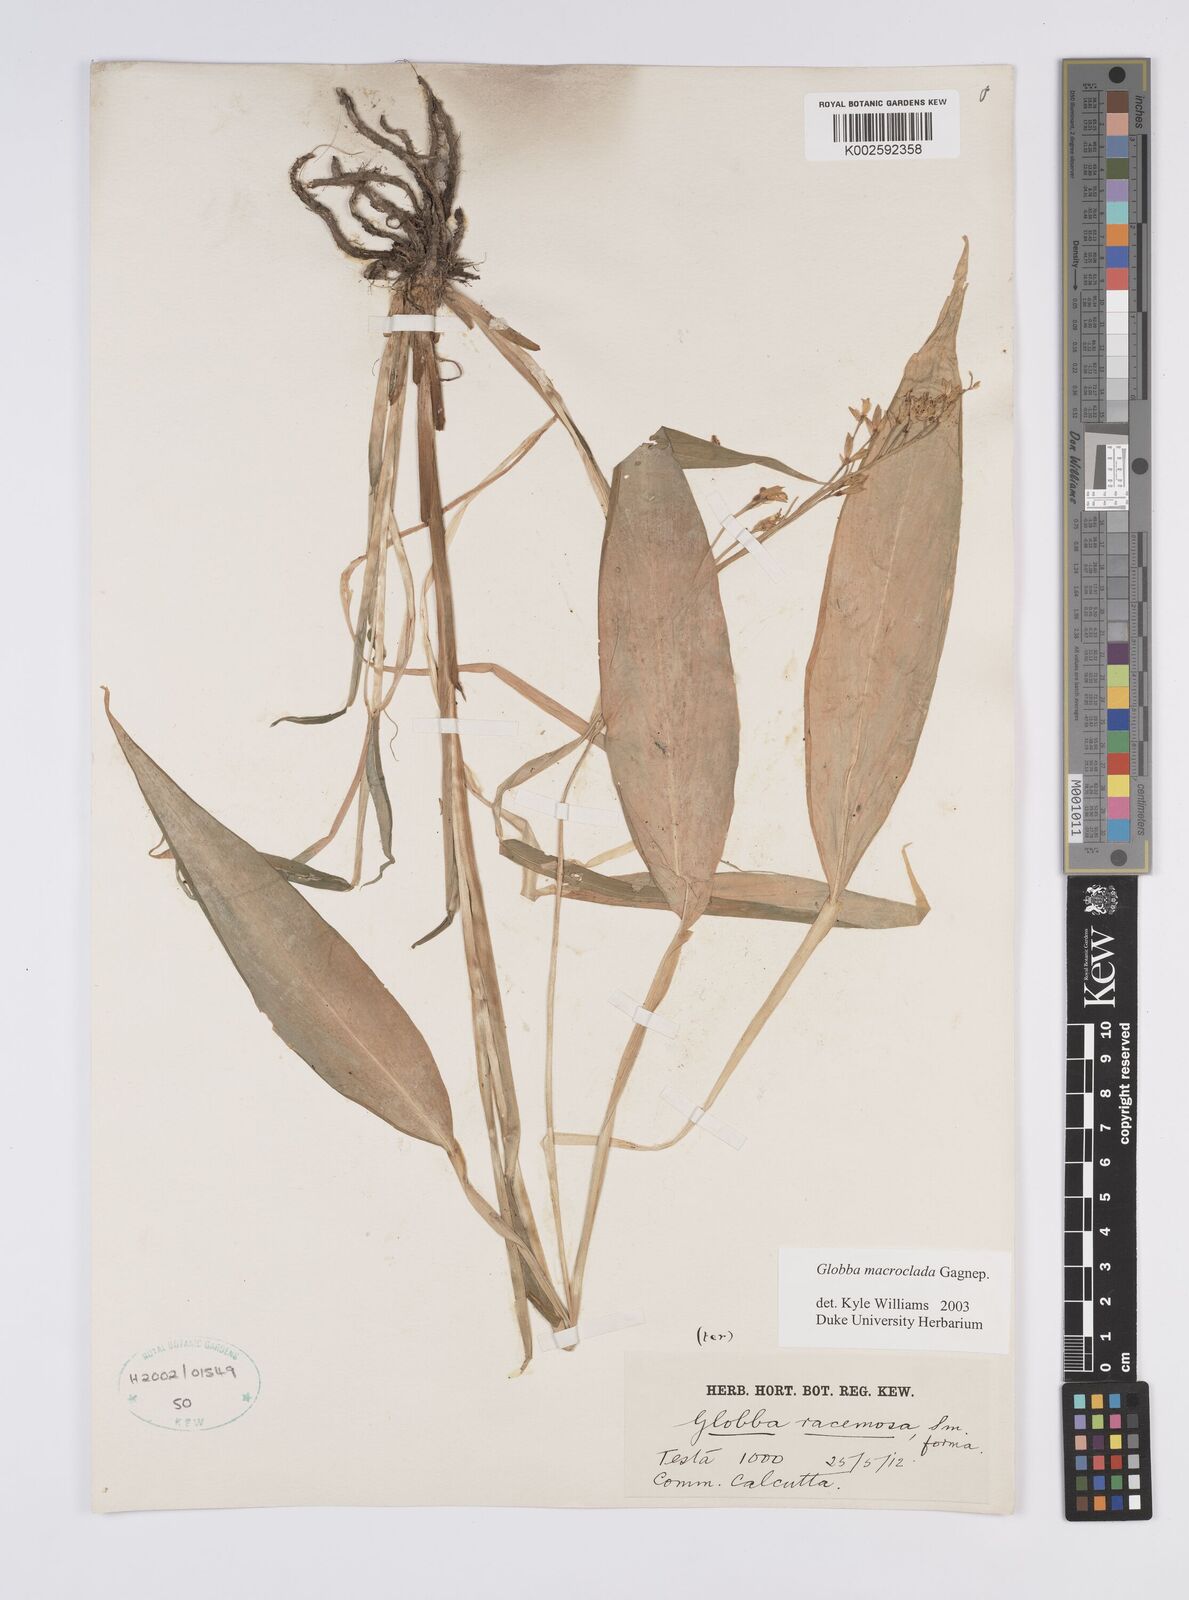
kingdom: Plantae
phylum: Tracheophyta
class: Liliopsida
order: Zingiberales
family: Zingiberaceae
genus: Globba
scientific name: Globba macroclada
